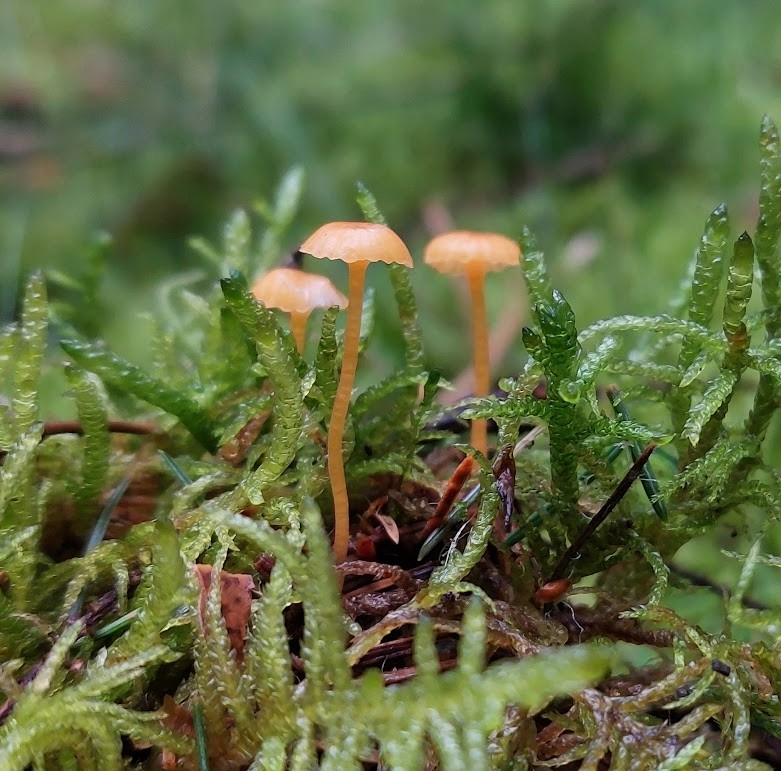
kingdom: Fungi
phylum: Basidiomycota
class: Agaricomycetes
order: Hymenochaetales
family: Rickenellaceae
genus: Rickenella
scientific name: Rickenella fibula
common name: orange mosnavlehat
